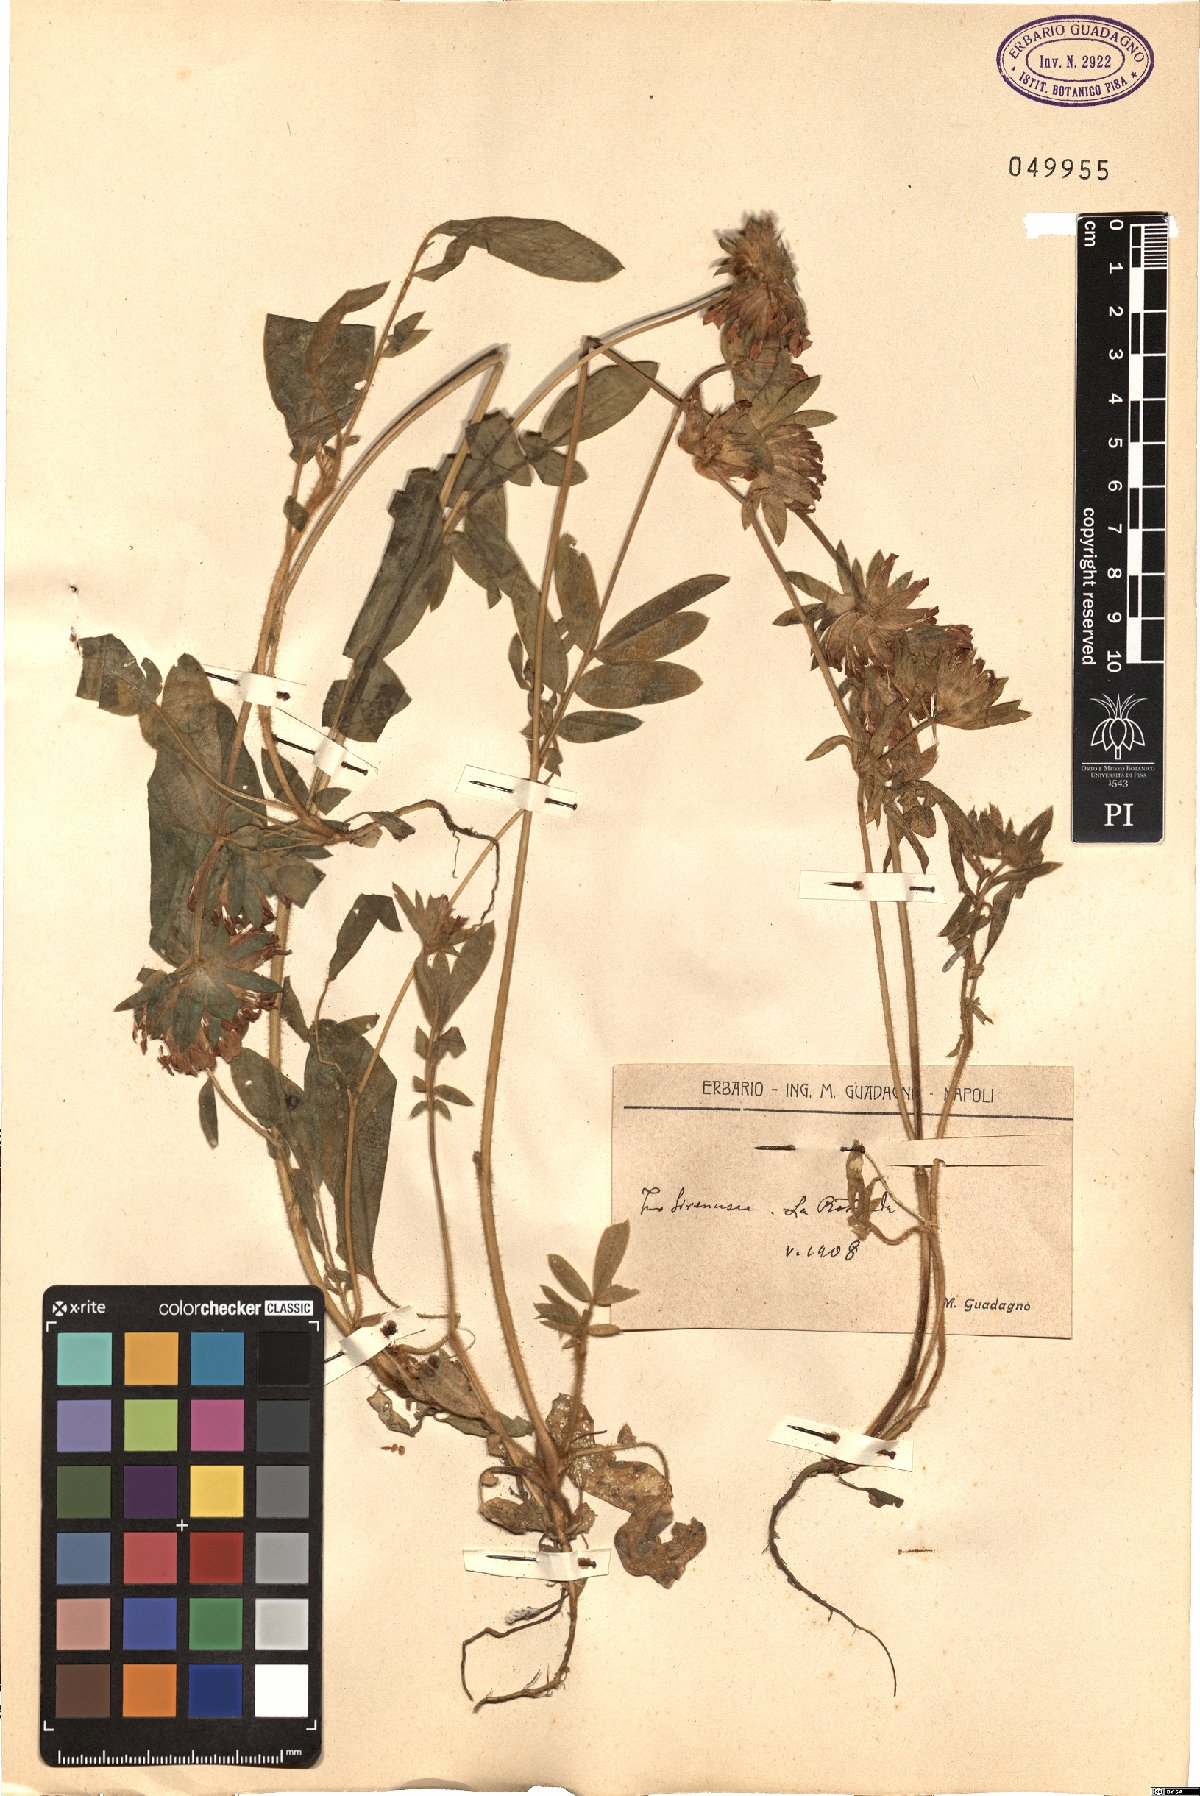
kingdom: Plantae
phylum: Tracheophyta
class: Magnoliopsida
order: Fabales
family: Fabaceae
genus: Anthyllis
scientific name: Anthyllis
